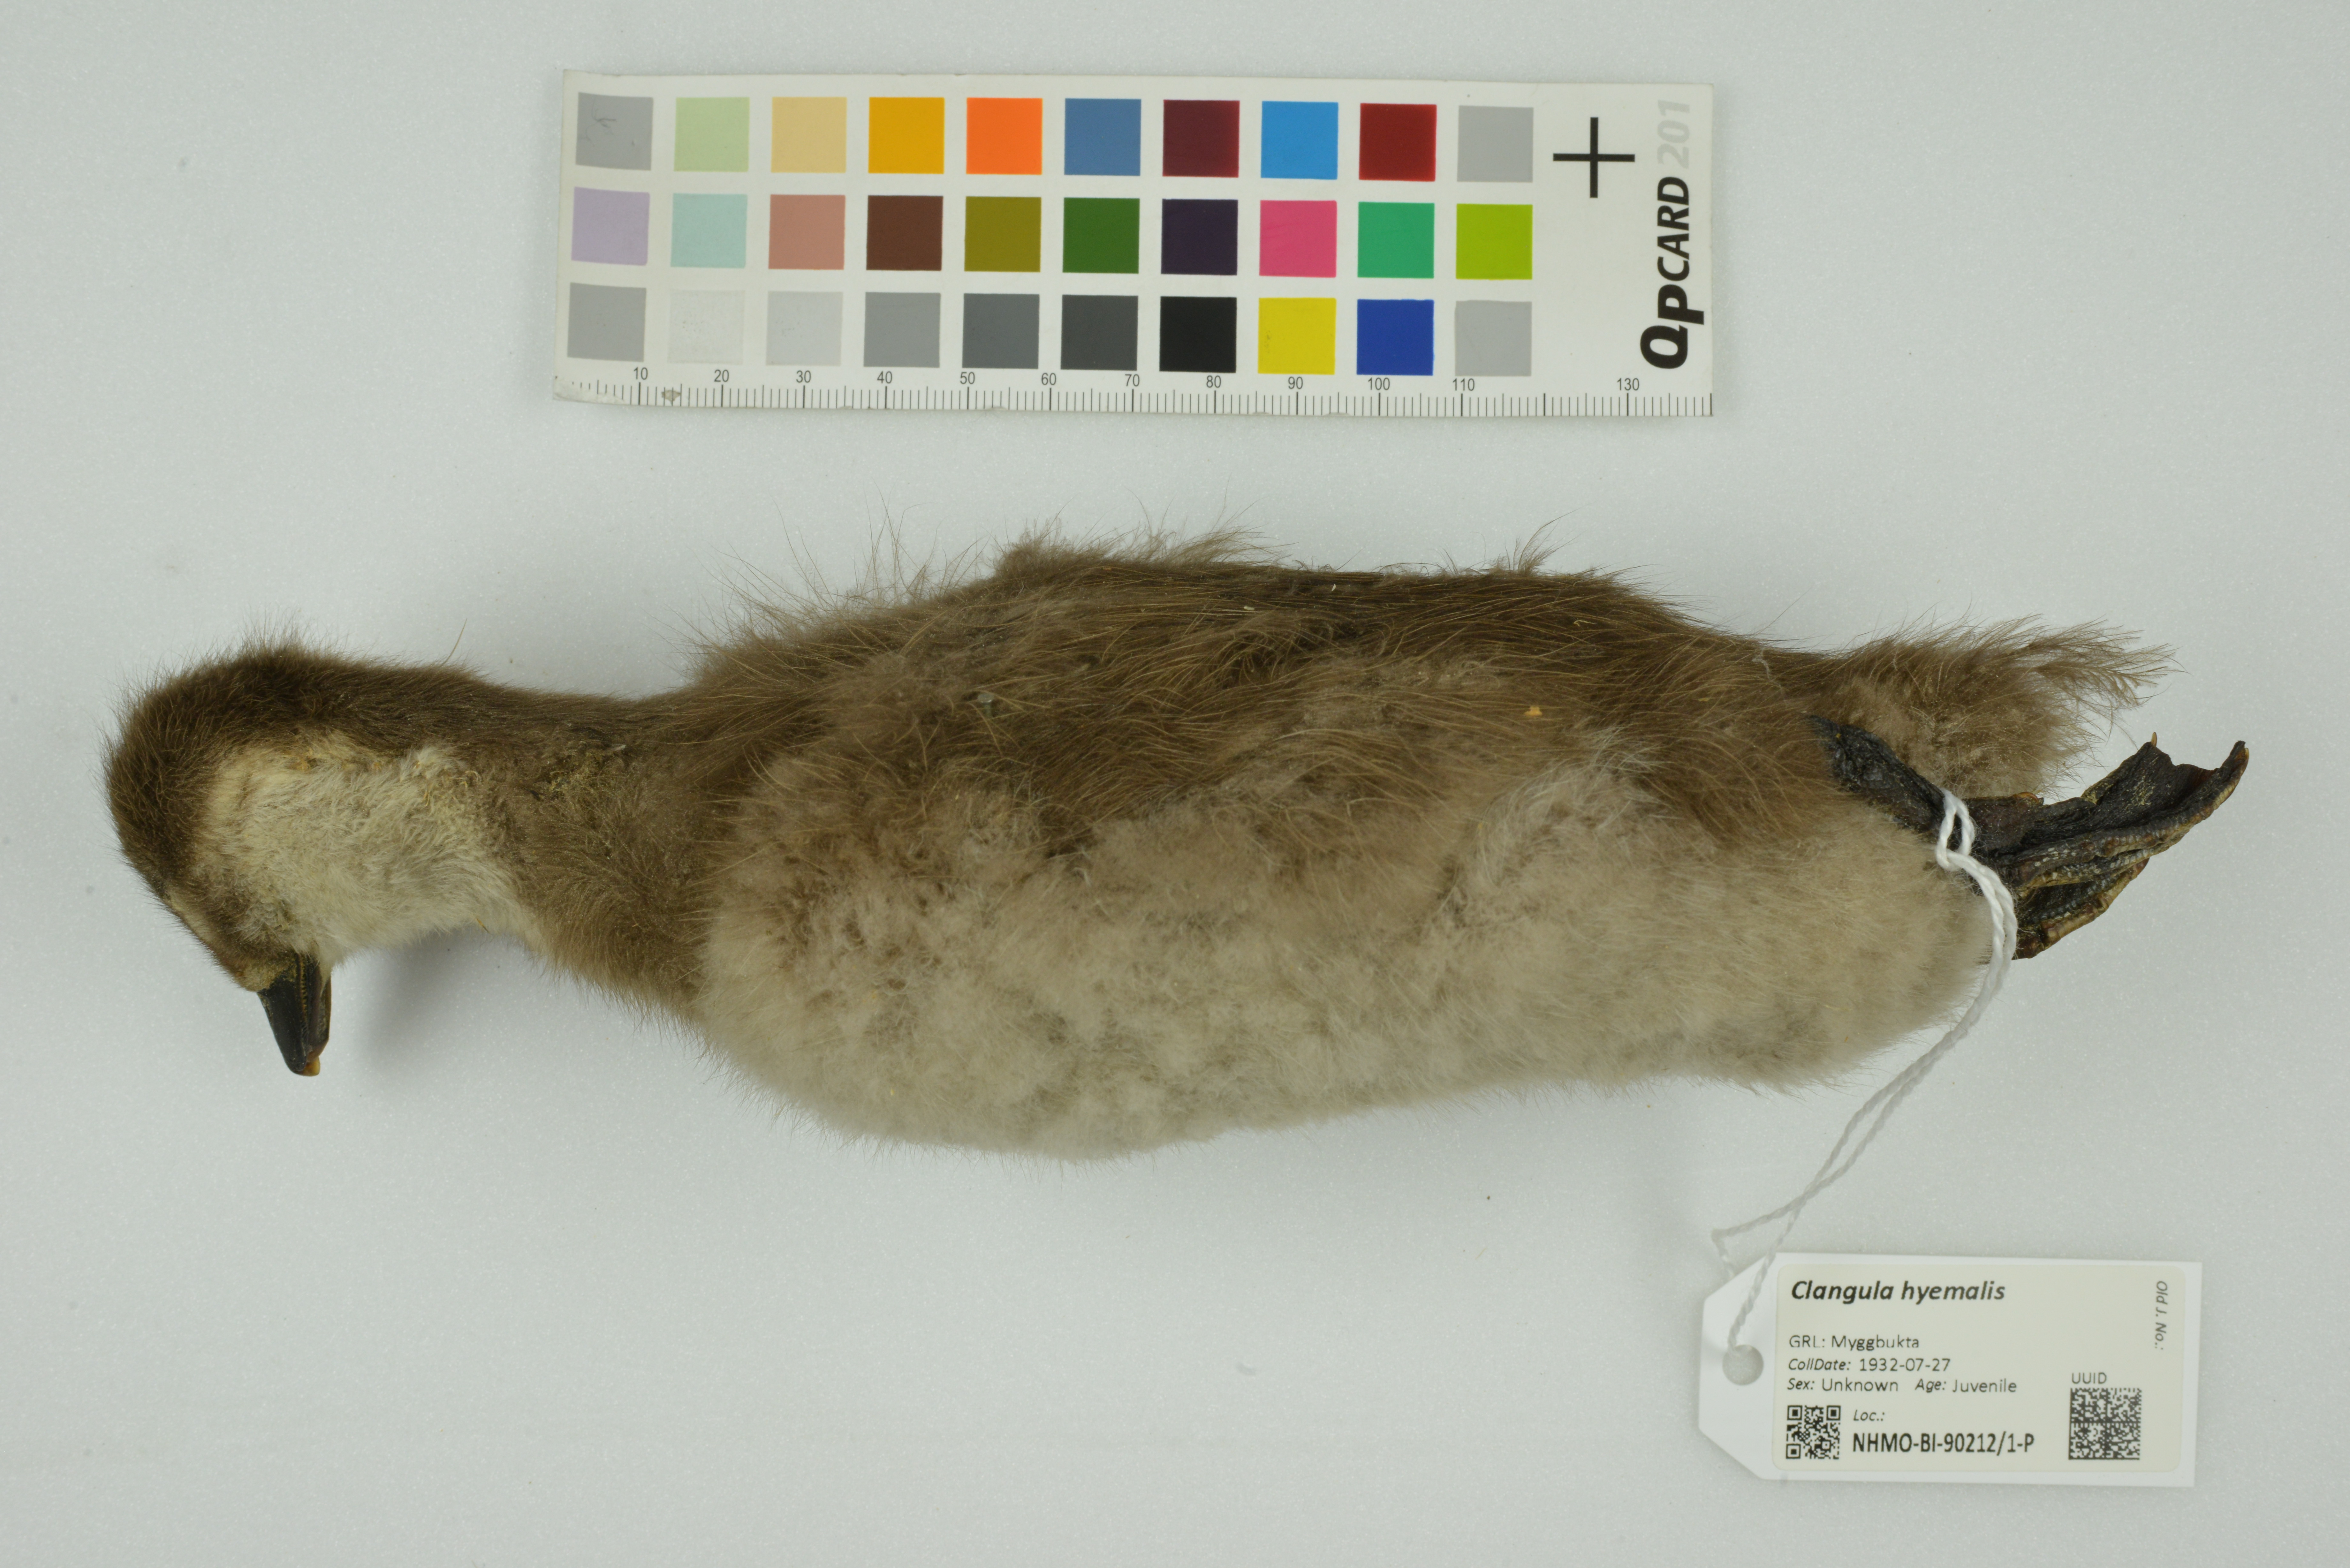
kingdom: Animalia
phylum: Chordata
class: Aves
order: Anseriformes
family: Anatidae
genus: Clangula
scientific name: Clangula hyemalis
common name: Long-tailed duck
